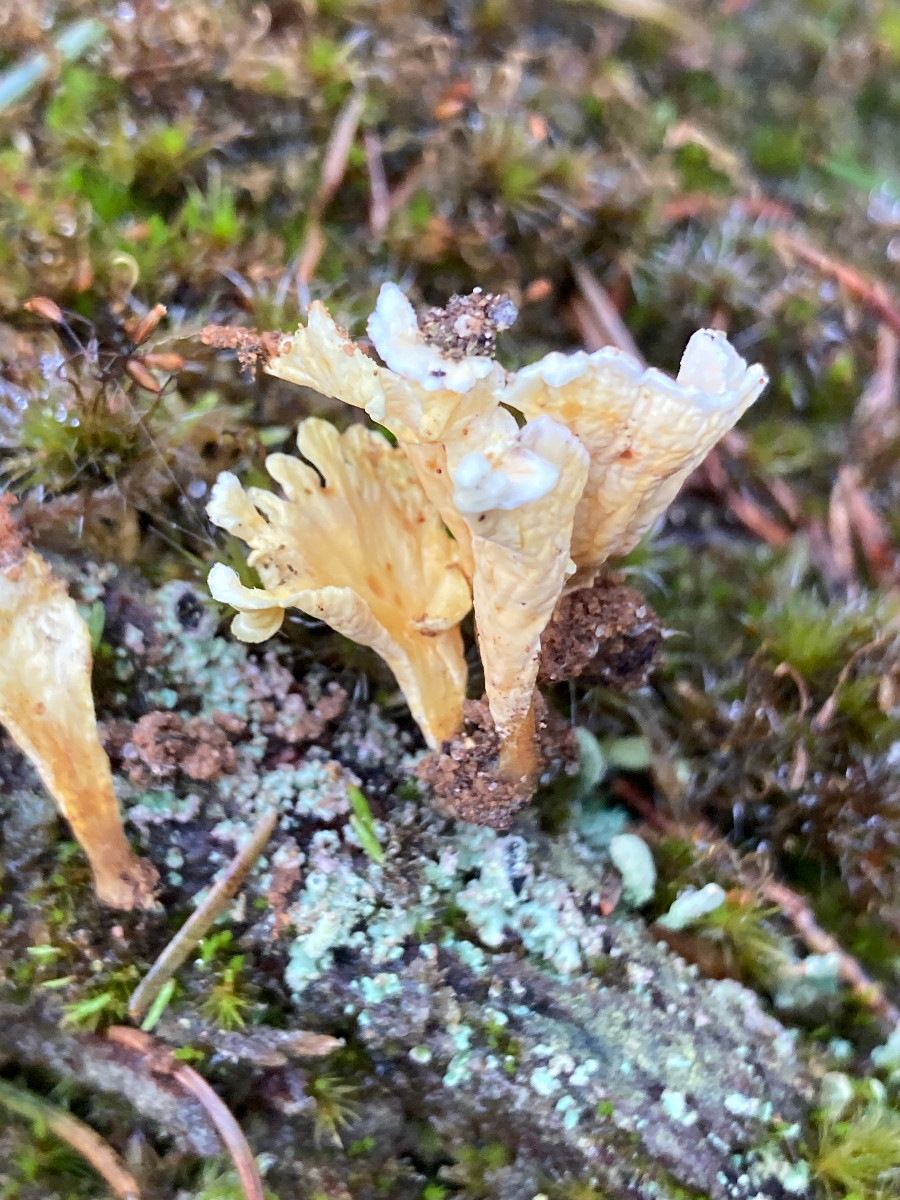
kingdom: Fungi
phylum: Basidiomycota
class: Agaricomycetes
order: Stereopsidales
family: Stereopsidaceae
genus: Stereopsis
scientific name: Stereopsis vitellina
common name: stilklædersvamp
